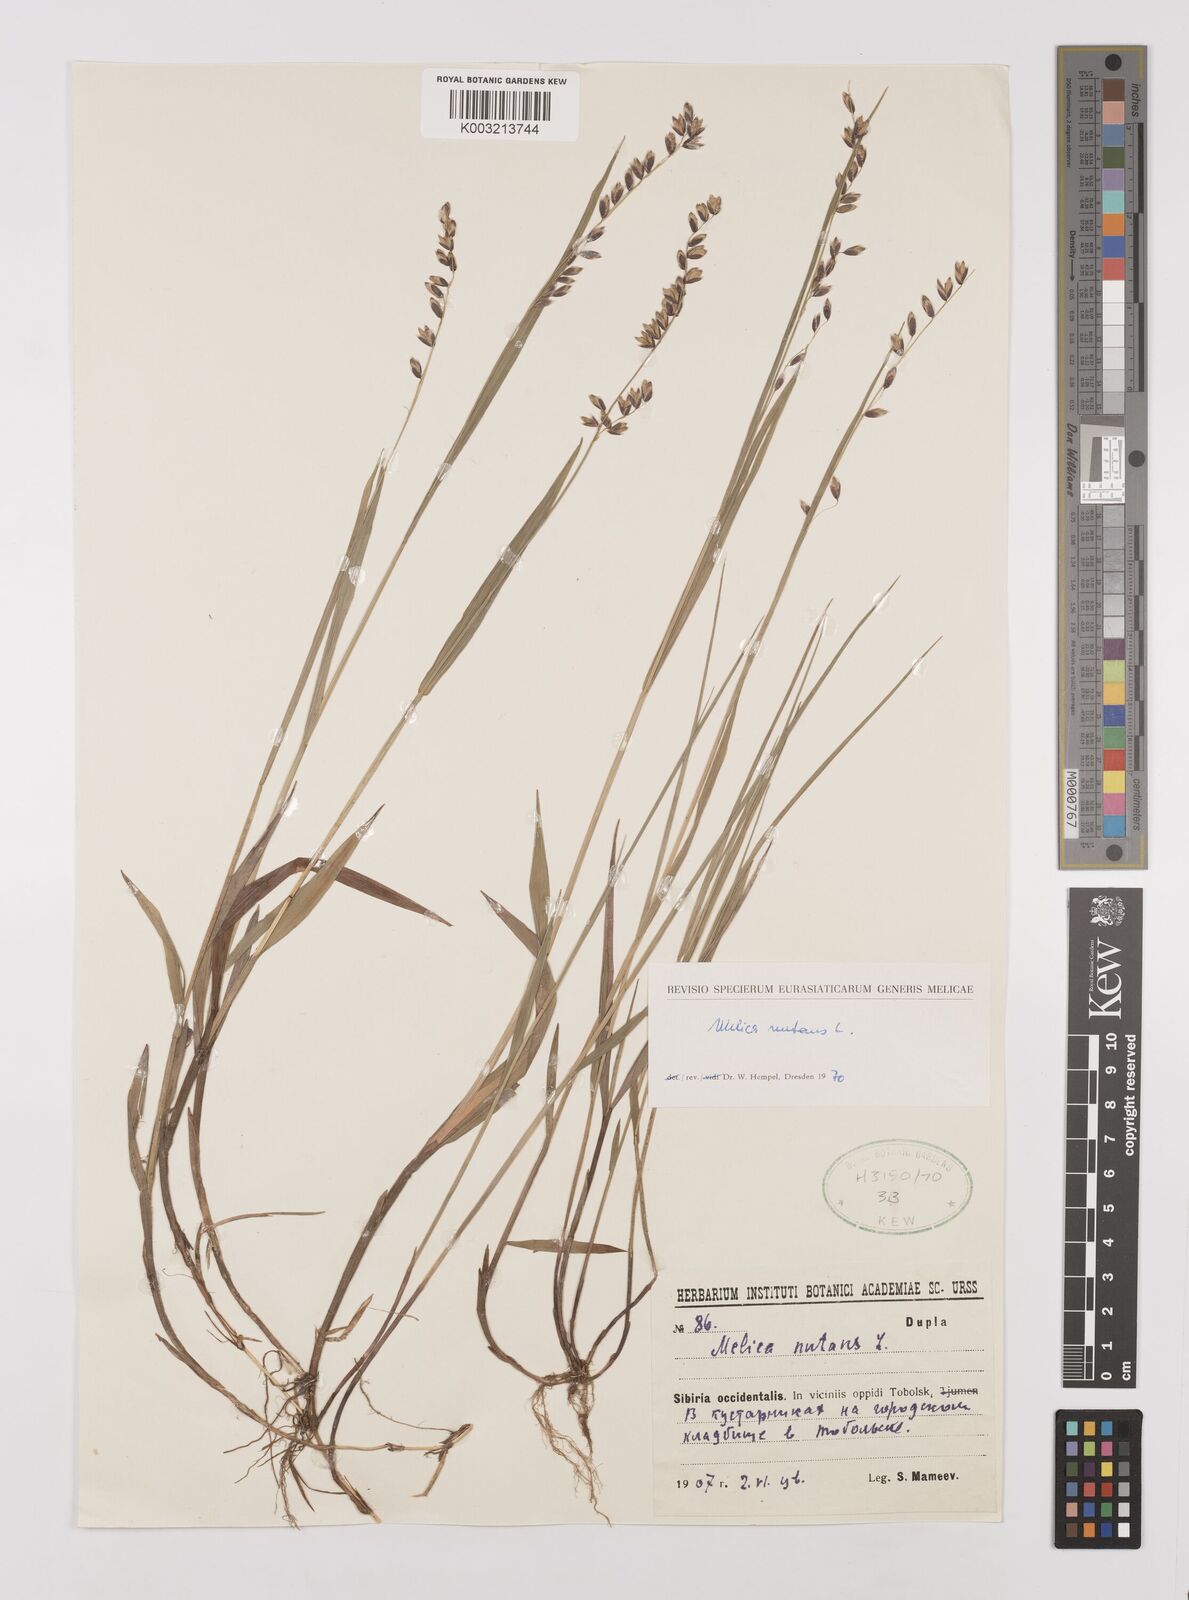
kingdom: Plantae
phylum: Tracheophyta
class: Liliopsida
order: Poales
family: Poaceae
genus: Melica
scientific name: Melica
